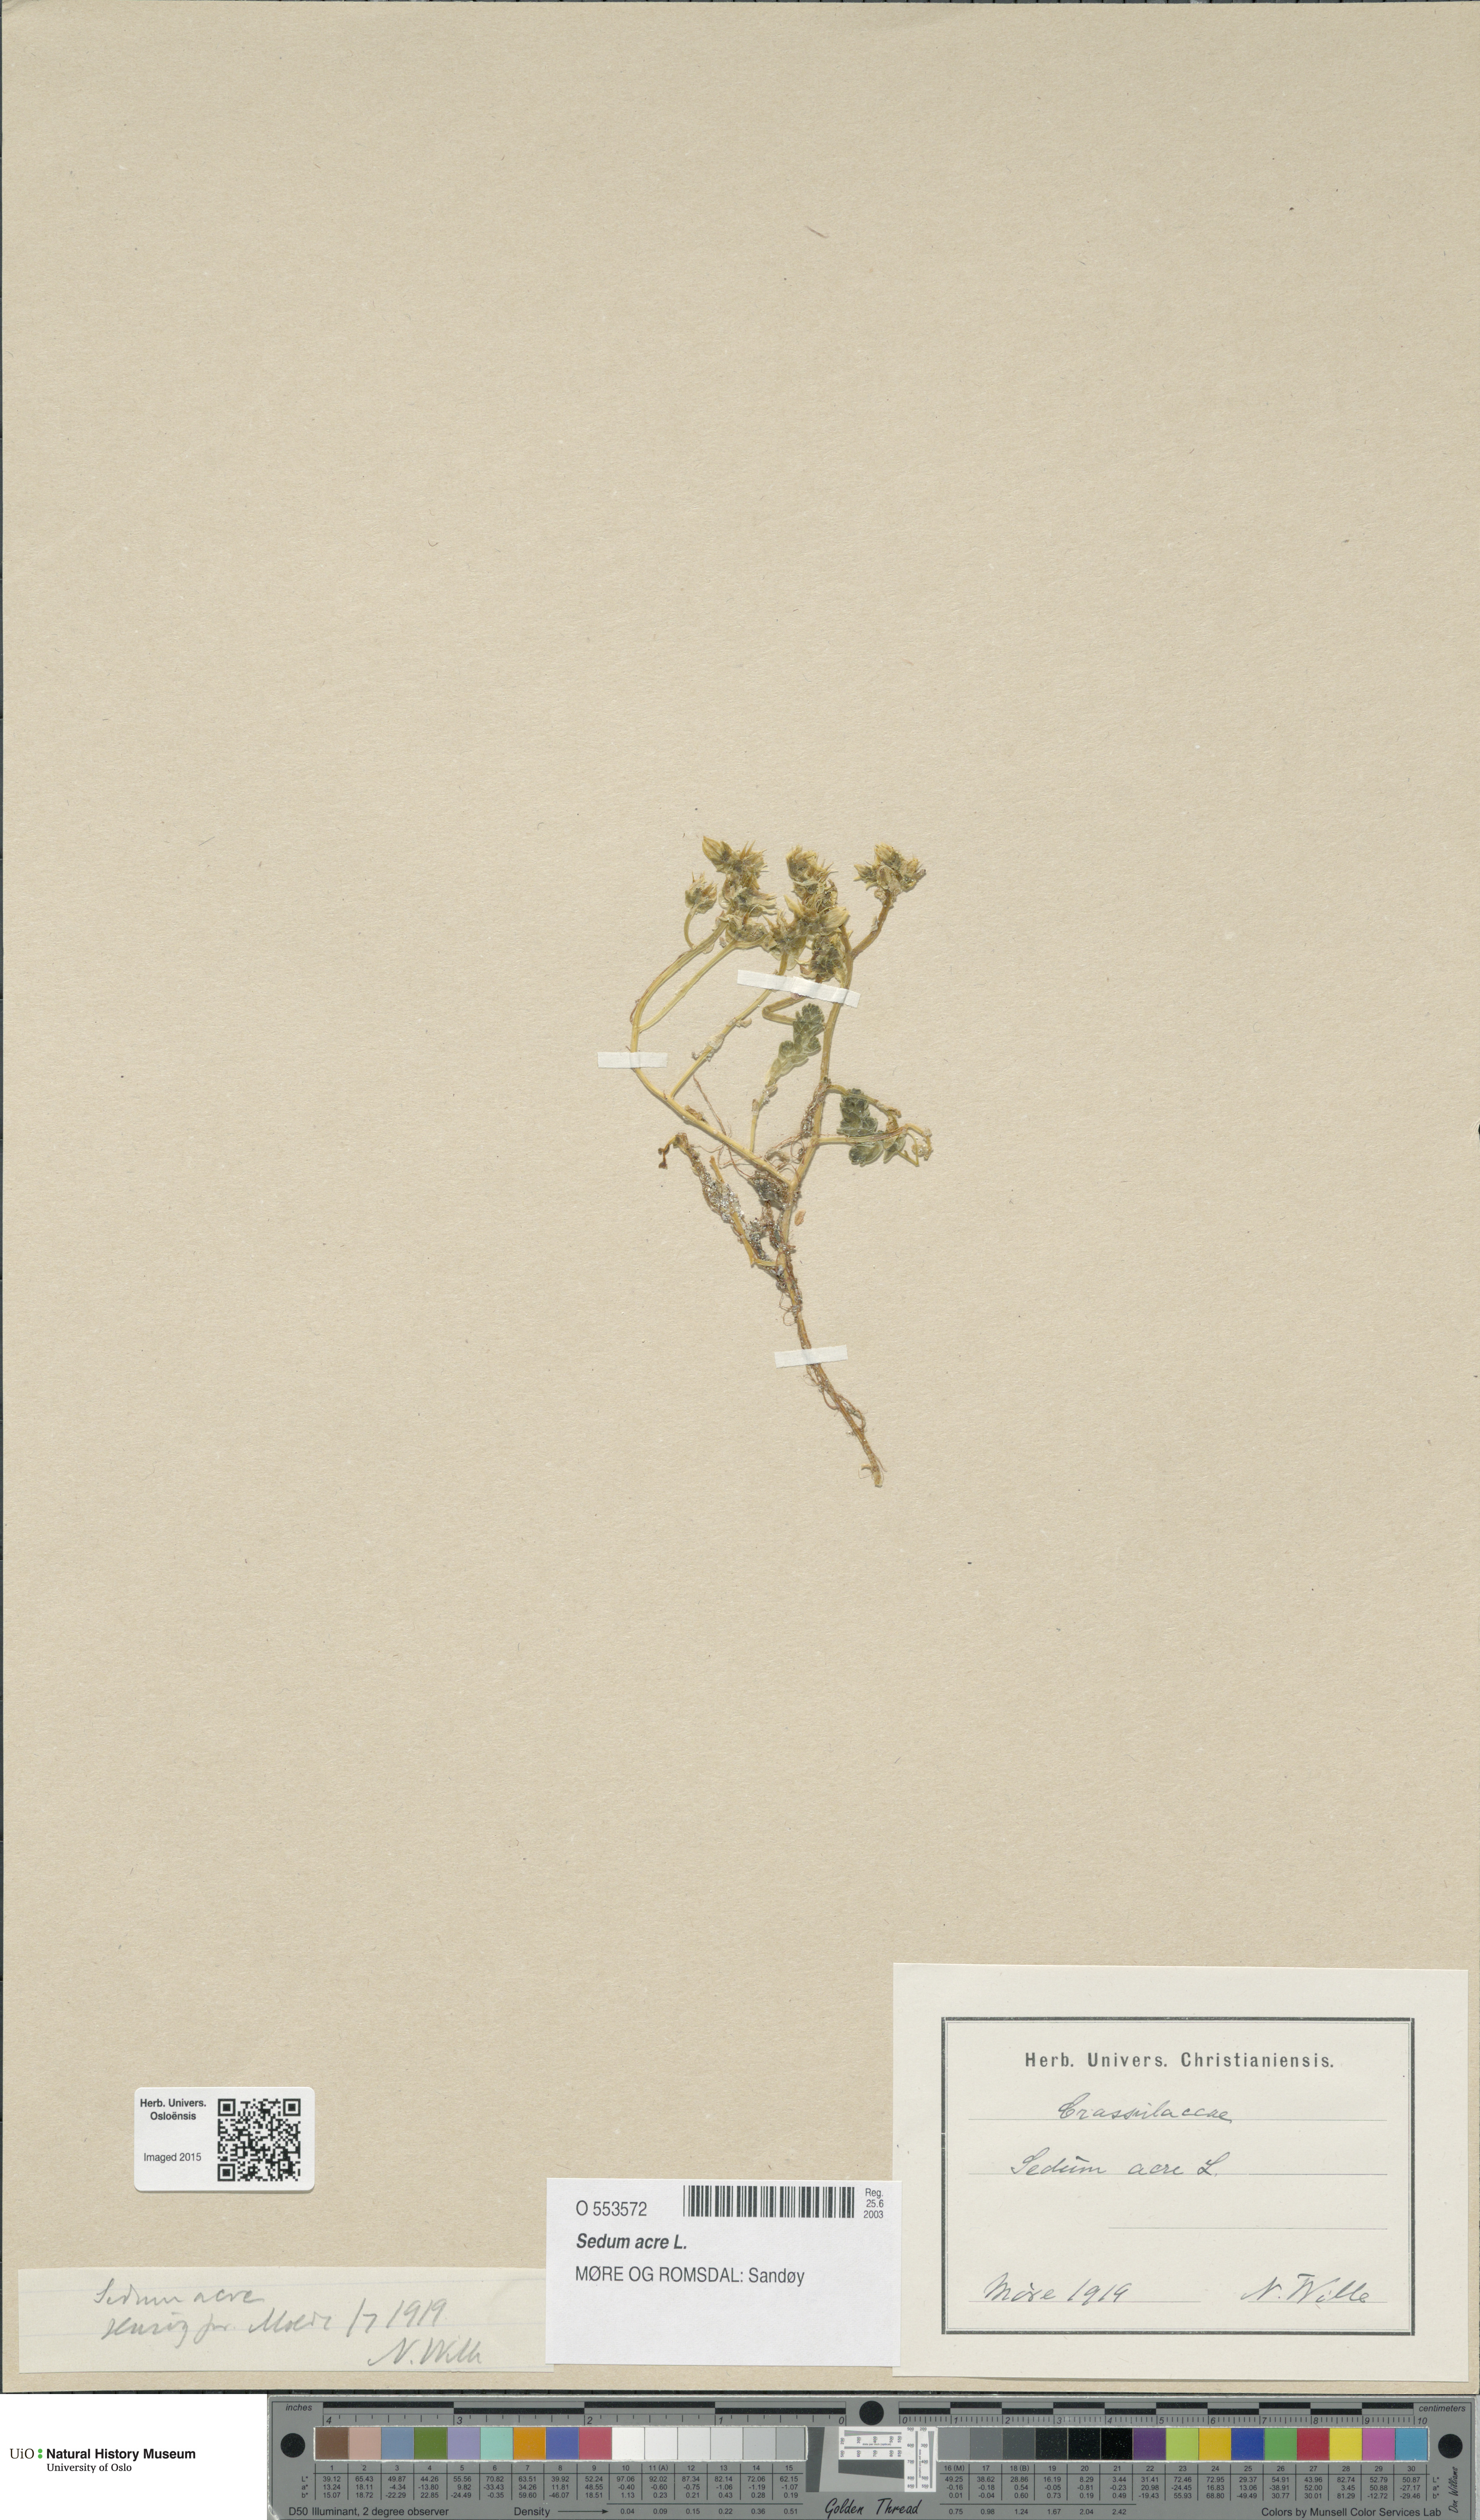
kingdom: Plantae
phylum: Tracheophyta
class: Magnoliopsida
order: Saxifragales
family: Crassulaceae
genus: Sedum
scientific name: Sedum acre
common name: Biting stonecrop
